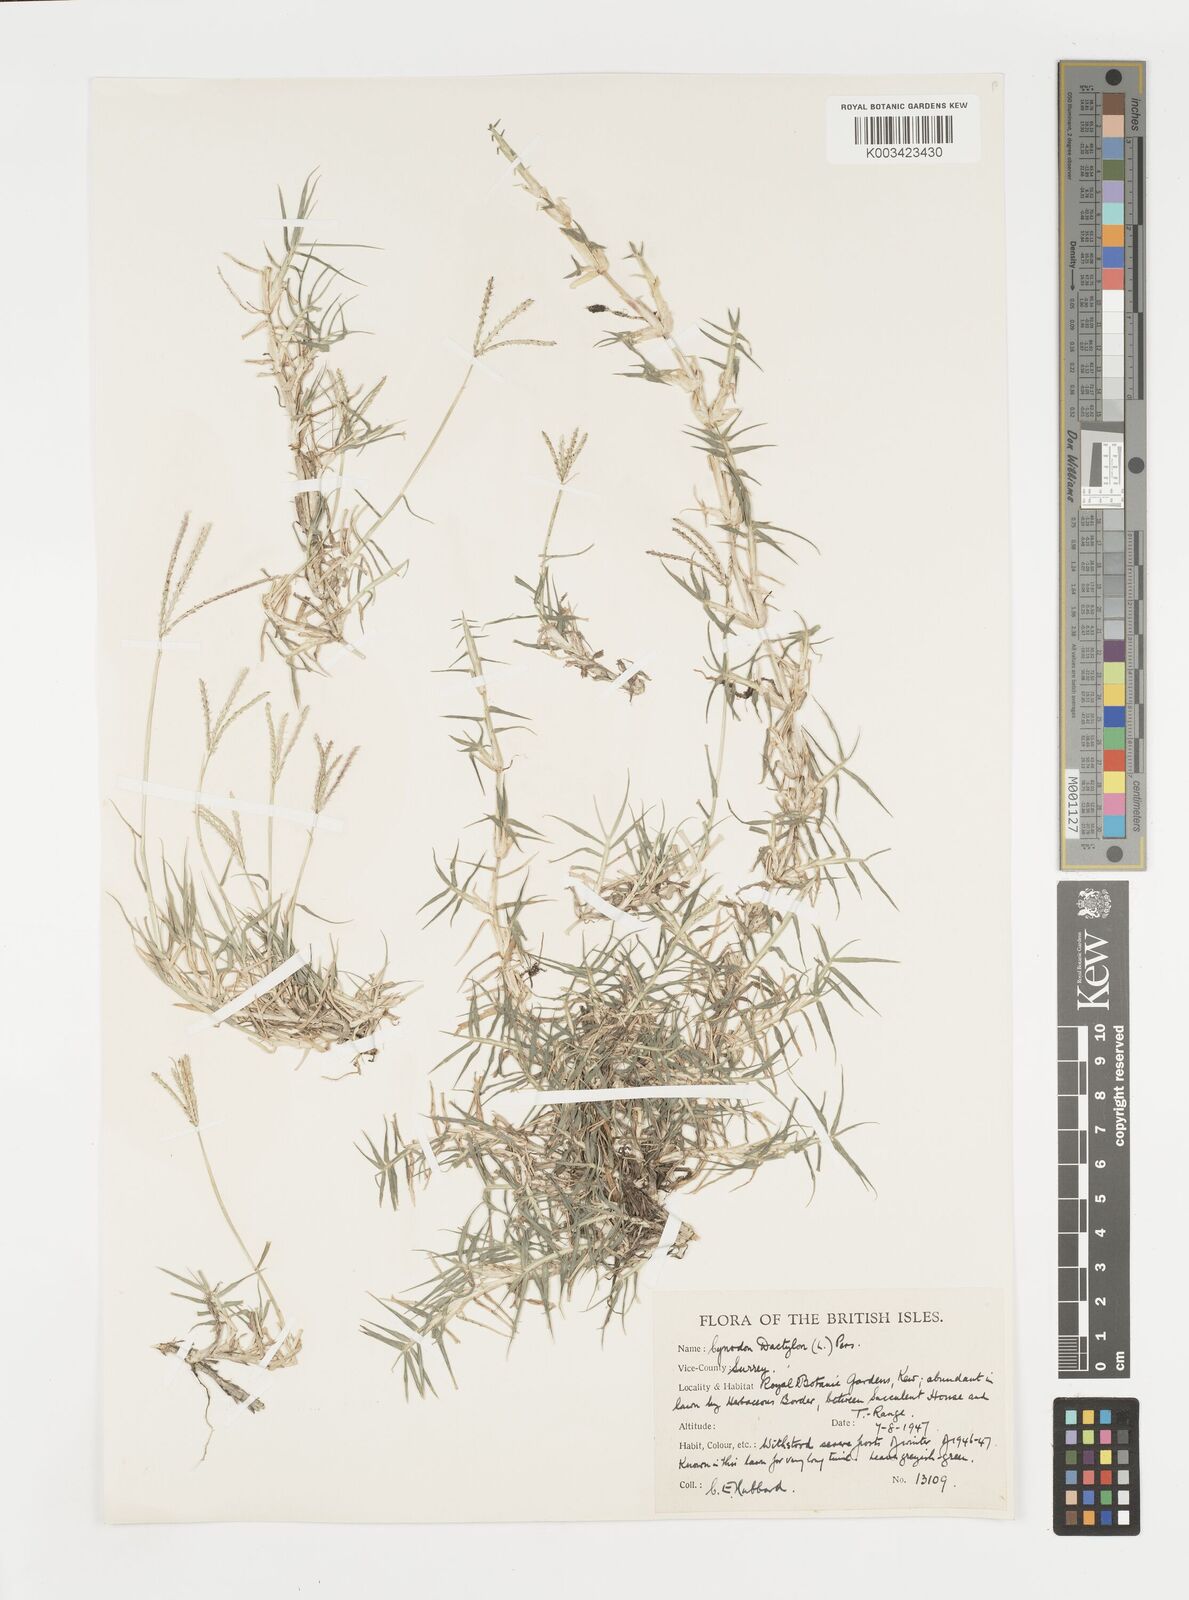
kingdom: Plantae
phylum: Tracheophyta
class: Liliopsida
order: Poales
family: Poaceae
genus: Cynodon
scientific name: Cynodon dactylon
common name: Bermuda grass
